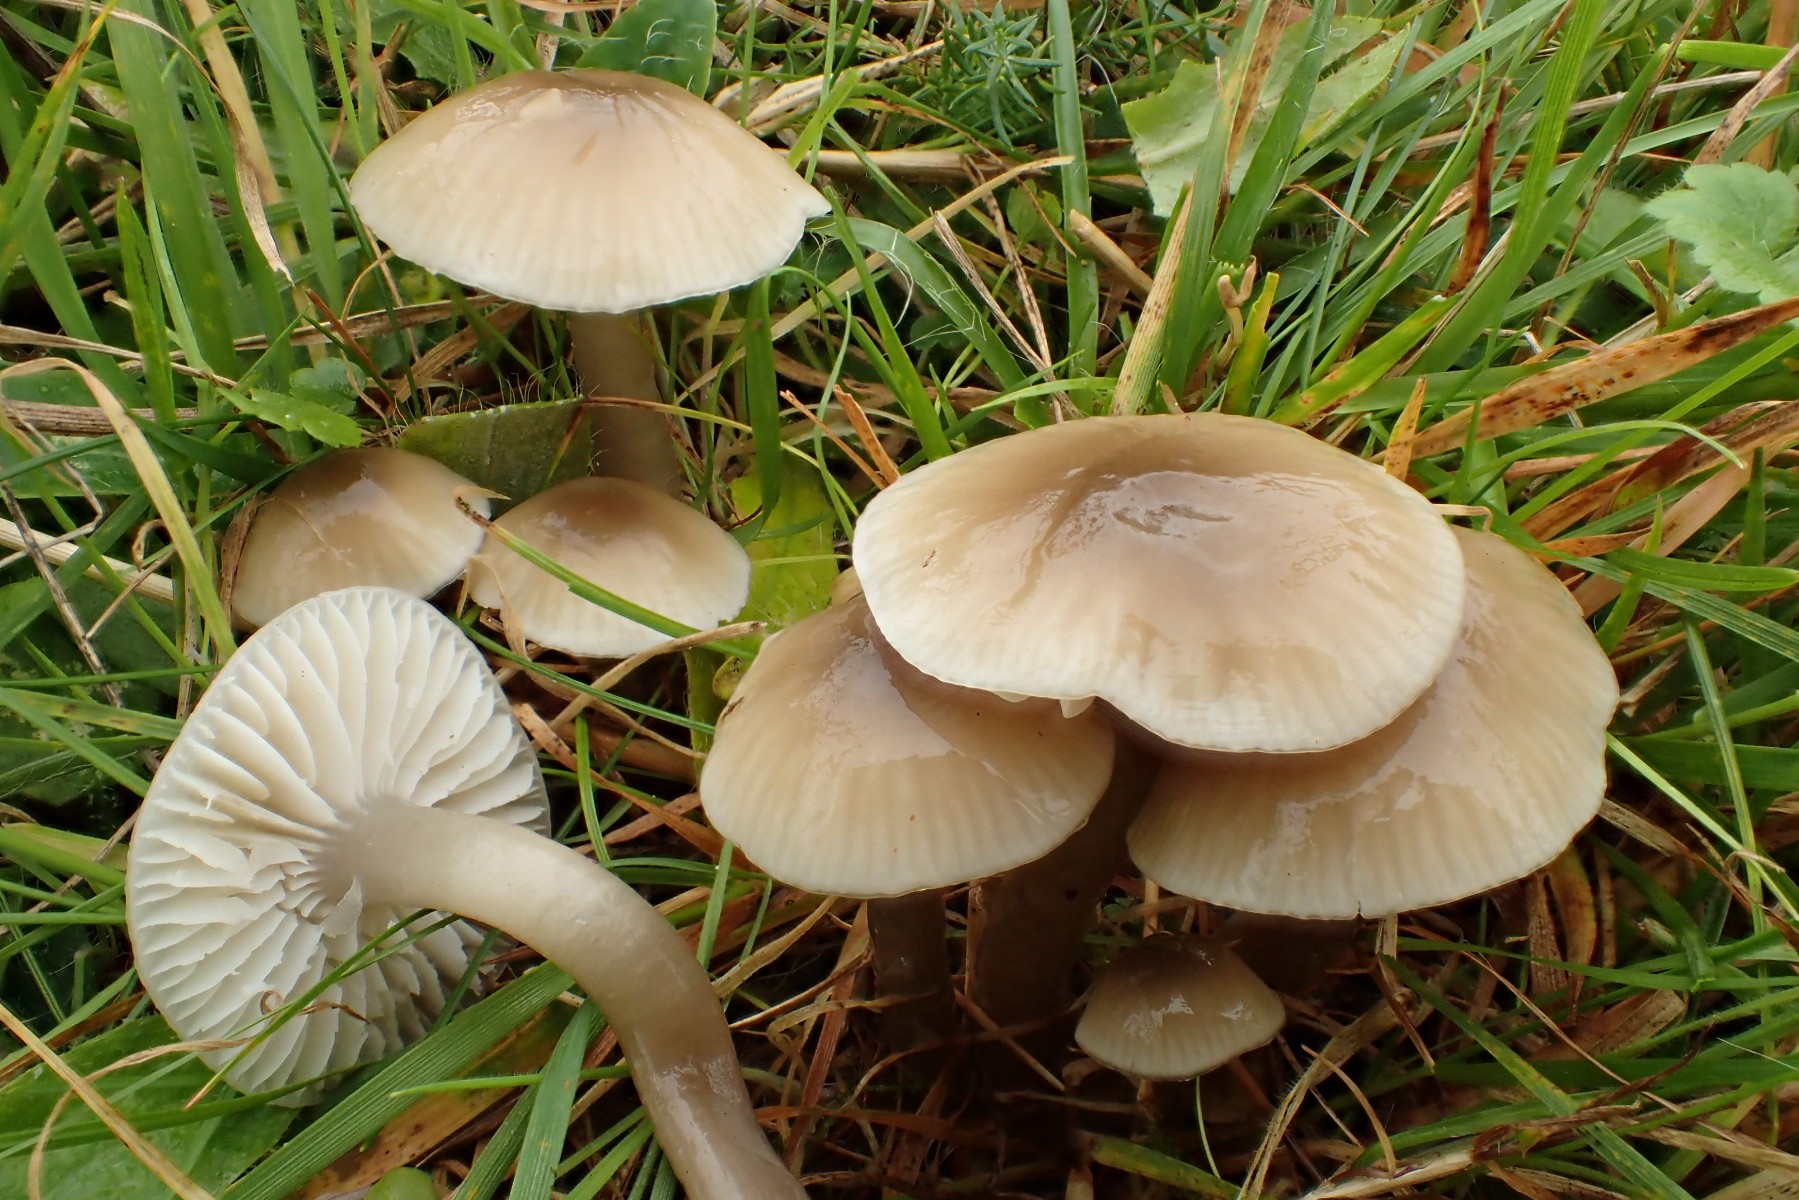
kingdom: Fungi
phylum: Basidiomycota
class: Agaricomycetes
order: Agaricales
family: Hygrophoraceae
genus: Gliophorus
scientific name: Gliophorus irrigatus
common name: slimet vokshat
